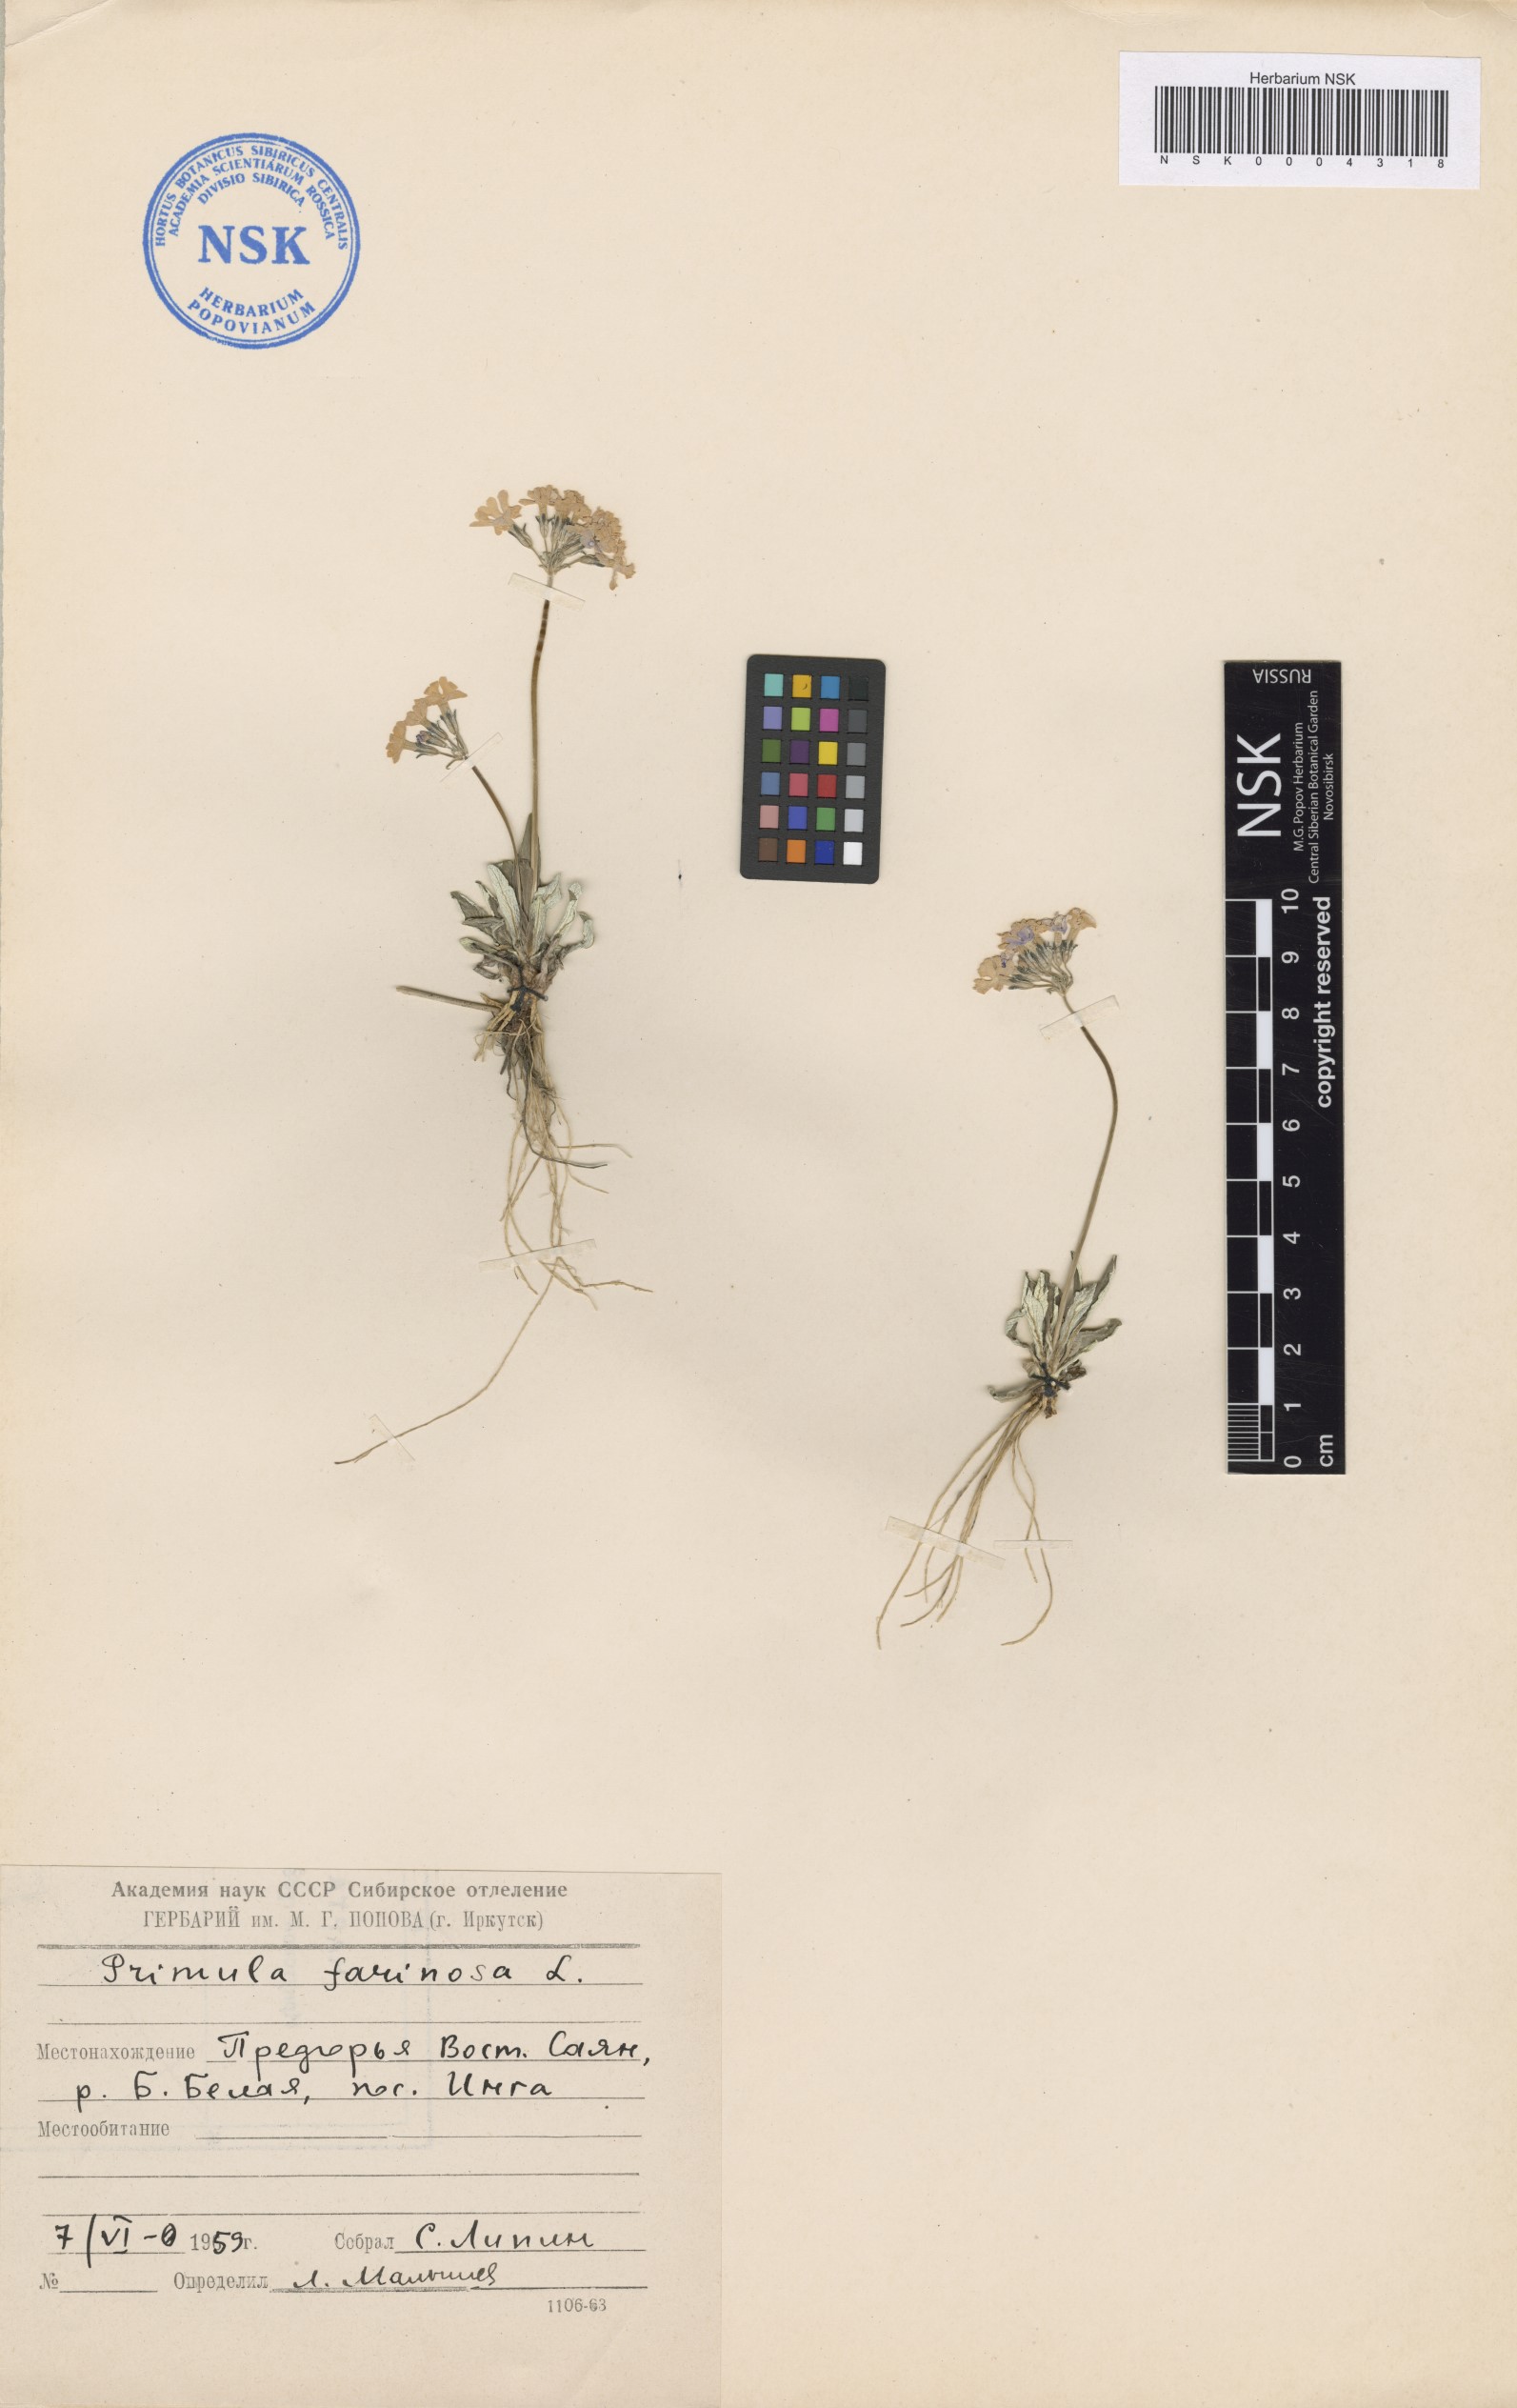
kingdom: Plantae
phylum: Tracheophyta
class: Magnoliopsida
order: Ericales
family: Primulaceae
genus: Primula
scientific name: Primula farinosa
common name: Bird's-eye primrose
